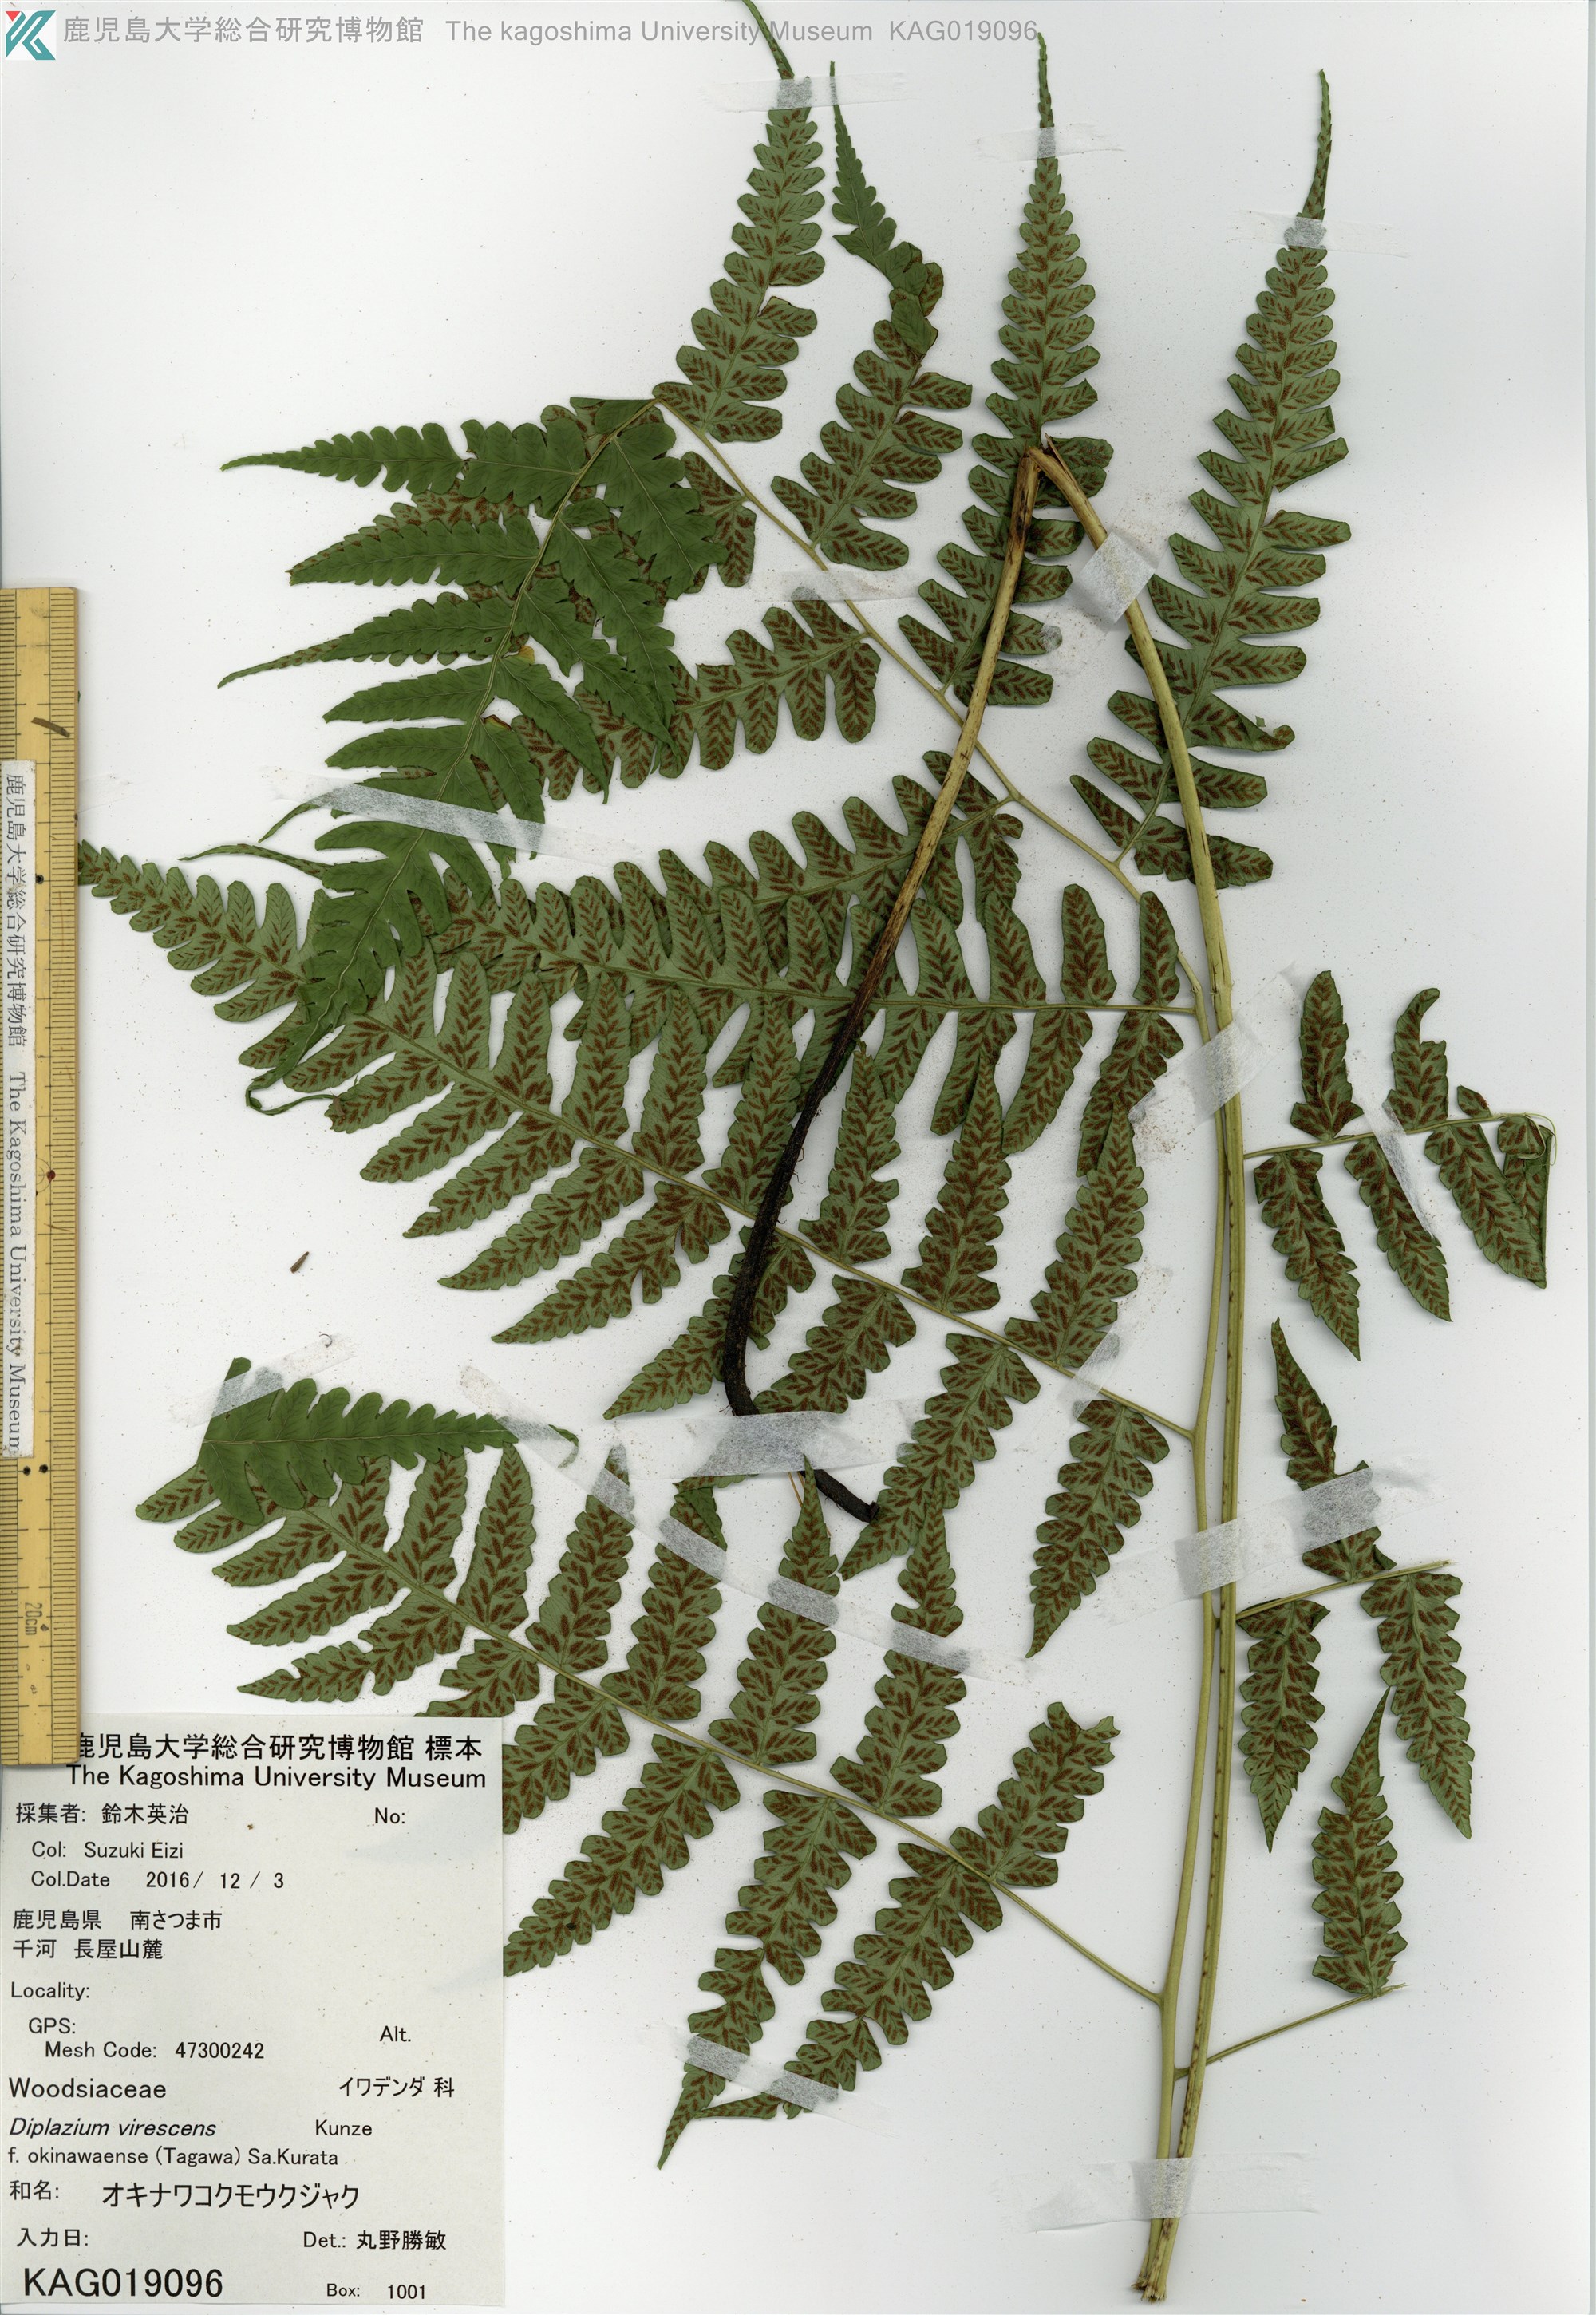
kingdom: Plantae
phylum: Tracheophyta
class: Polypodiopsida
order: Polypodiales
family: Athyriaceae
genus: Diplazium
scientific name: Diplazium okinawaense
